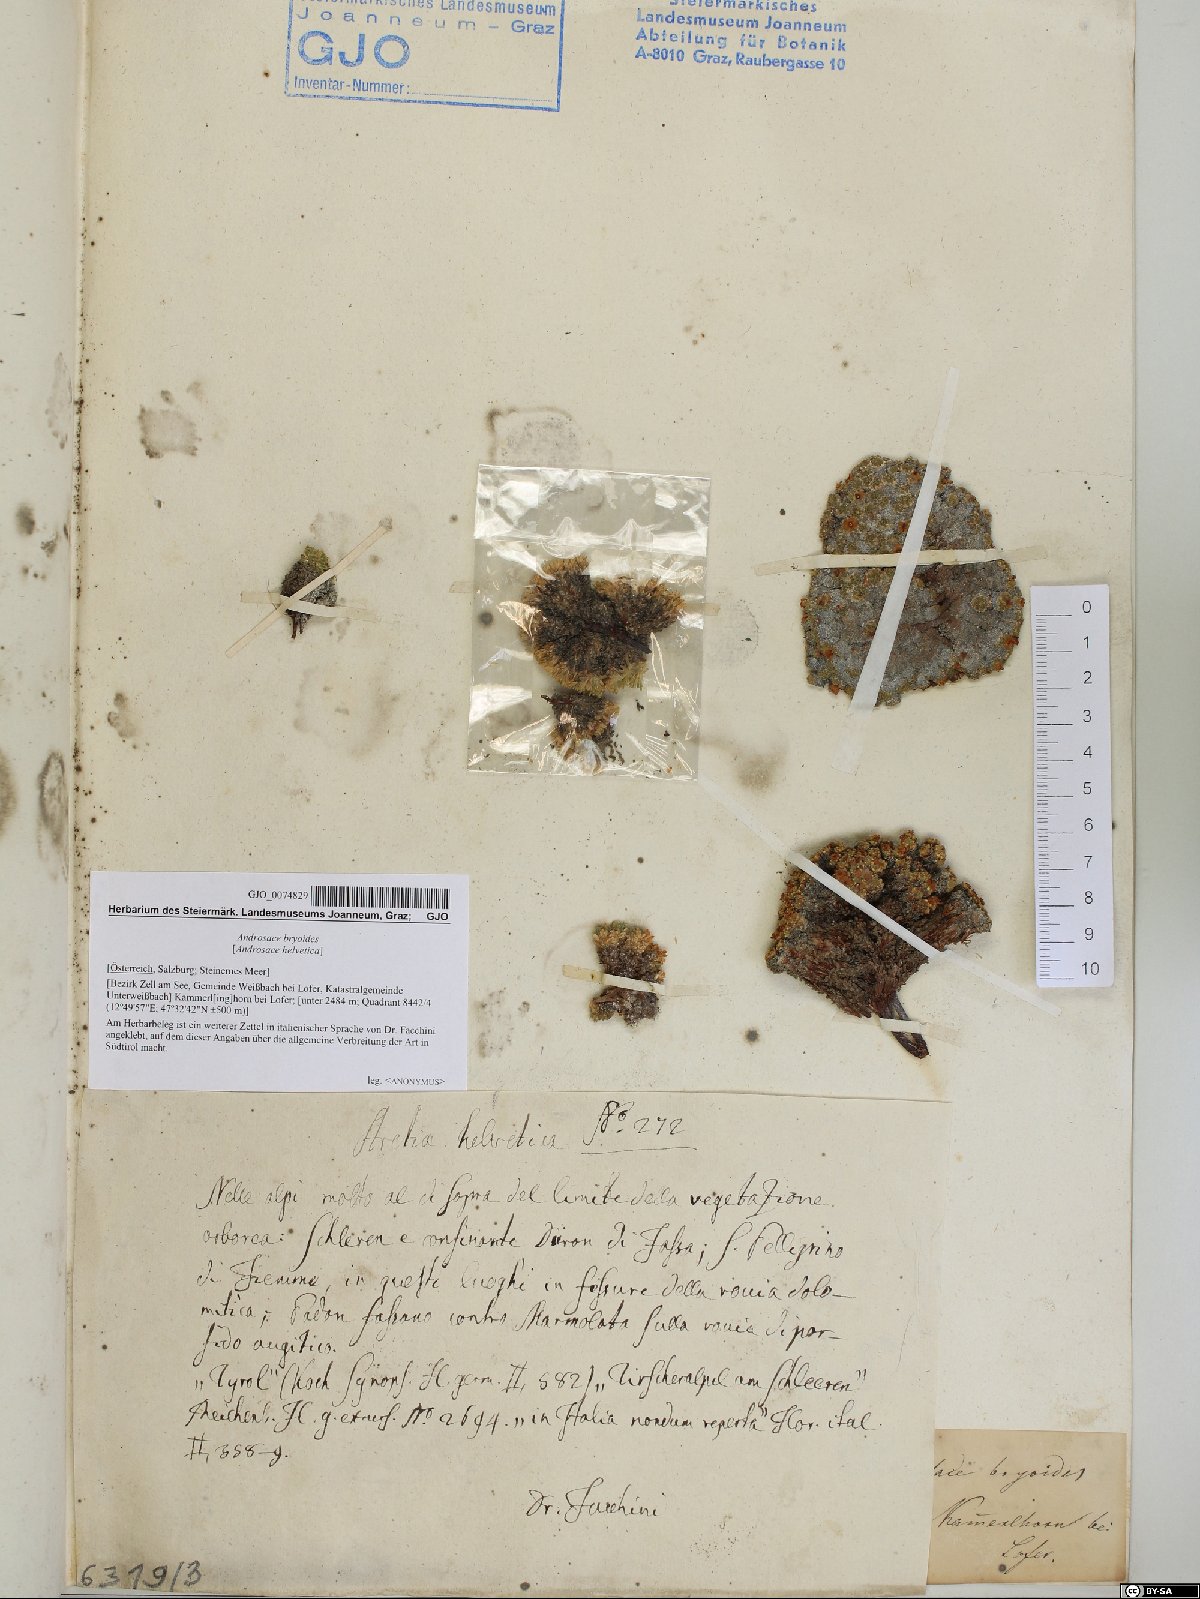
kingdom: Plantae
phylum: Tracheophyta
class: Magnoliopsida
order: Ericales
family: Primulaceae
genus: Androsace
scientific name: Androsace helvetica
